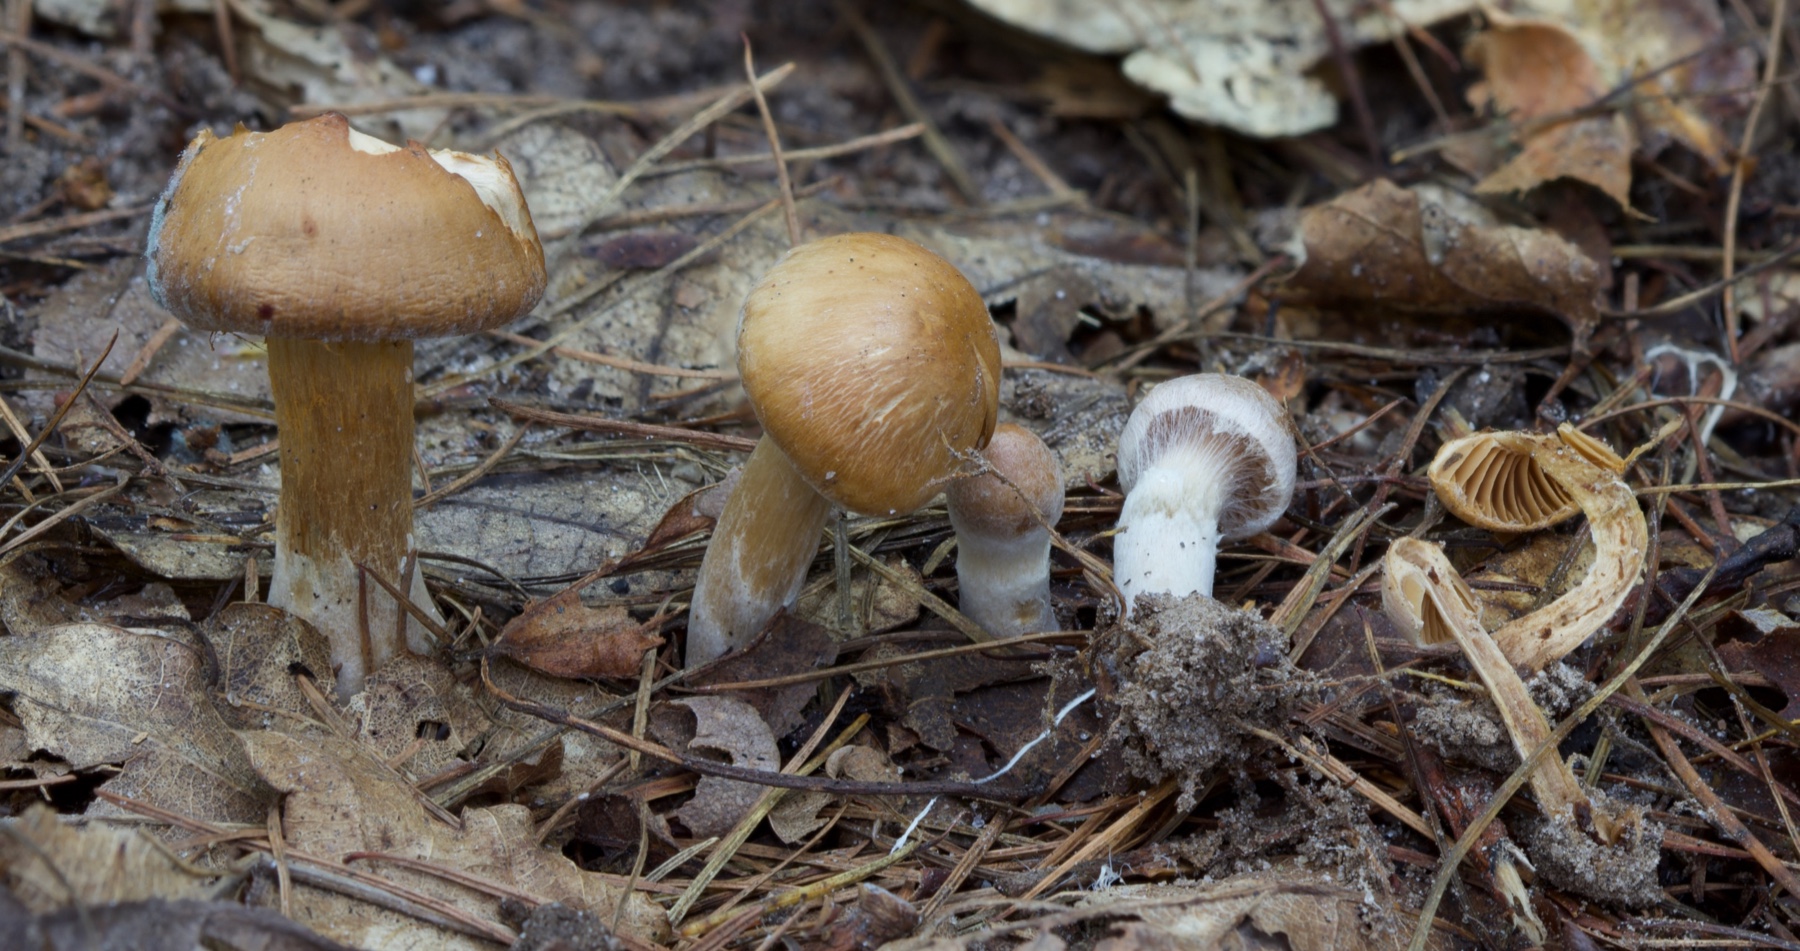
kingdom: Fungi
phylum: Basidiomycota
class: Agaricomycetes
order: Agaricales
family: Cortinariaceae
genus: Cortinarius
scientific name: Cortinarius
